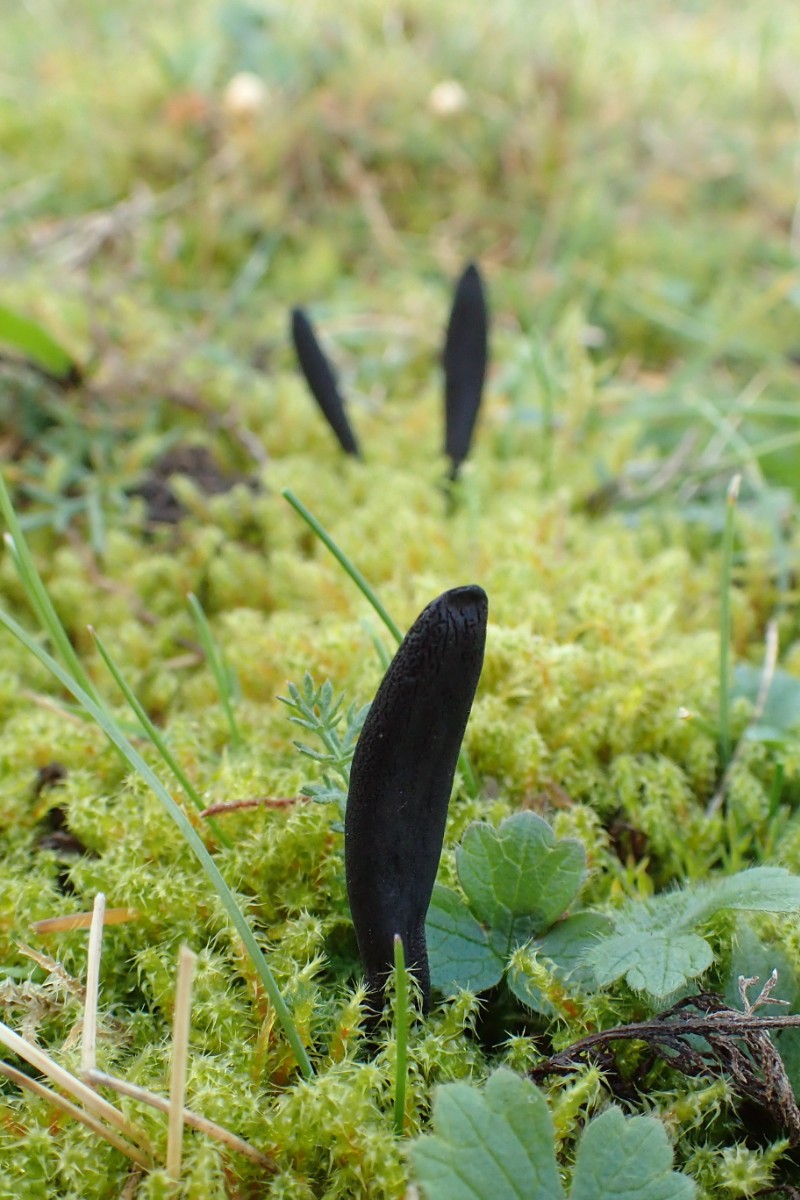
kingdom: Fungi
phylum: Ascomycota
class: Geoglossomycetes
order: Geoglossales
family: Geoglossaceae
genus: Hemileucoglossum
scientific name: Hemileucoglossum elongatum
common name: småsporet jordtunge
